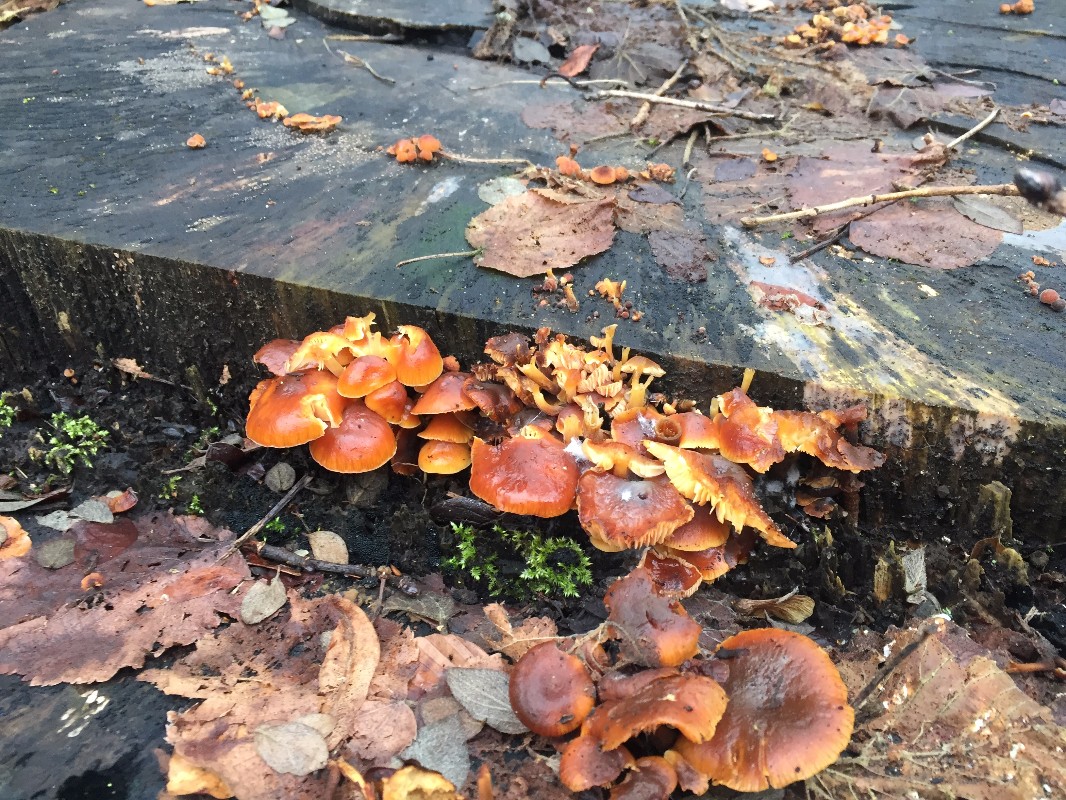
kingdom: Fungi
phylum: Basidiomycota
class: Agaricomycetes
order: Agaricales
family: Physalacriaceae
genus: Flammulina
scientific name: Flammulina velutipes
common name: gul fløjlsfod
